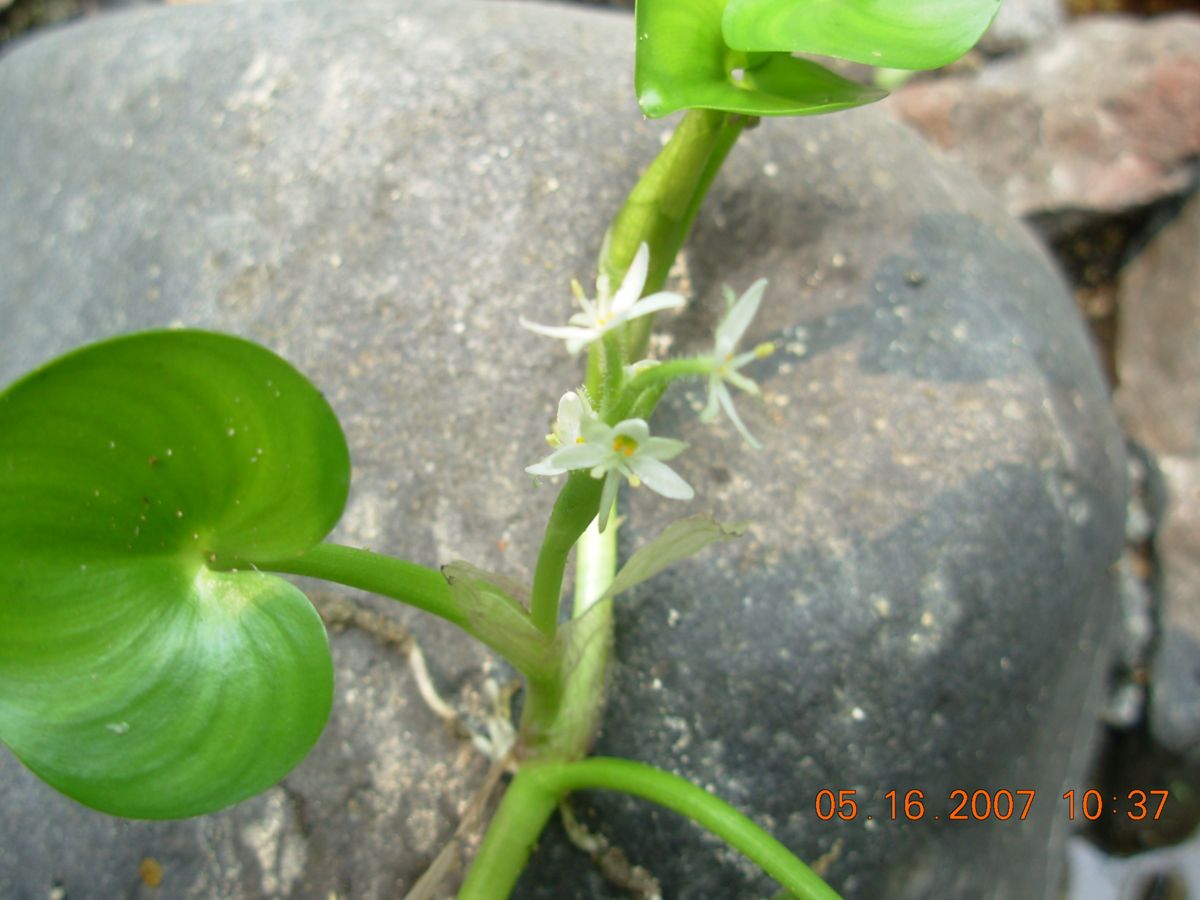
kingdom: Plantae
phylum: Tracheophyta
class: Liliopsida
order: Commelinales
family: Pontederiaceae
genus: Heteranthera
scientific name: Heteranthera reniformis
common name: Kidneyleaf mudplantain
